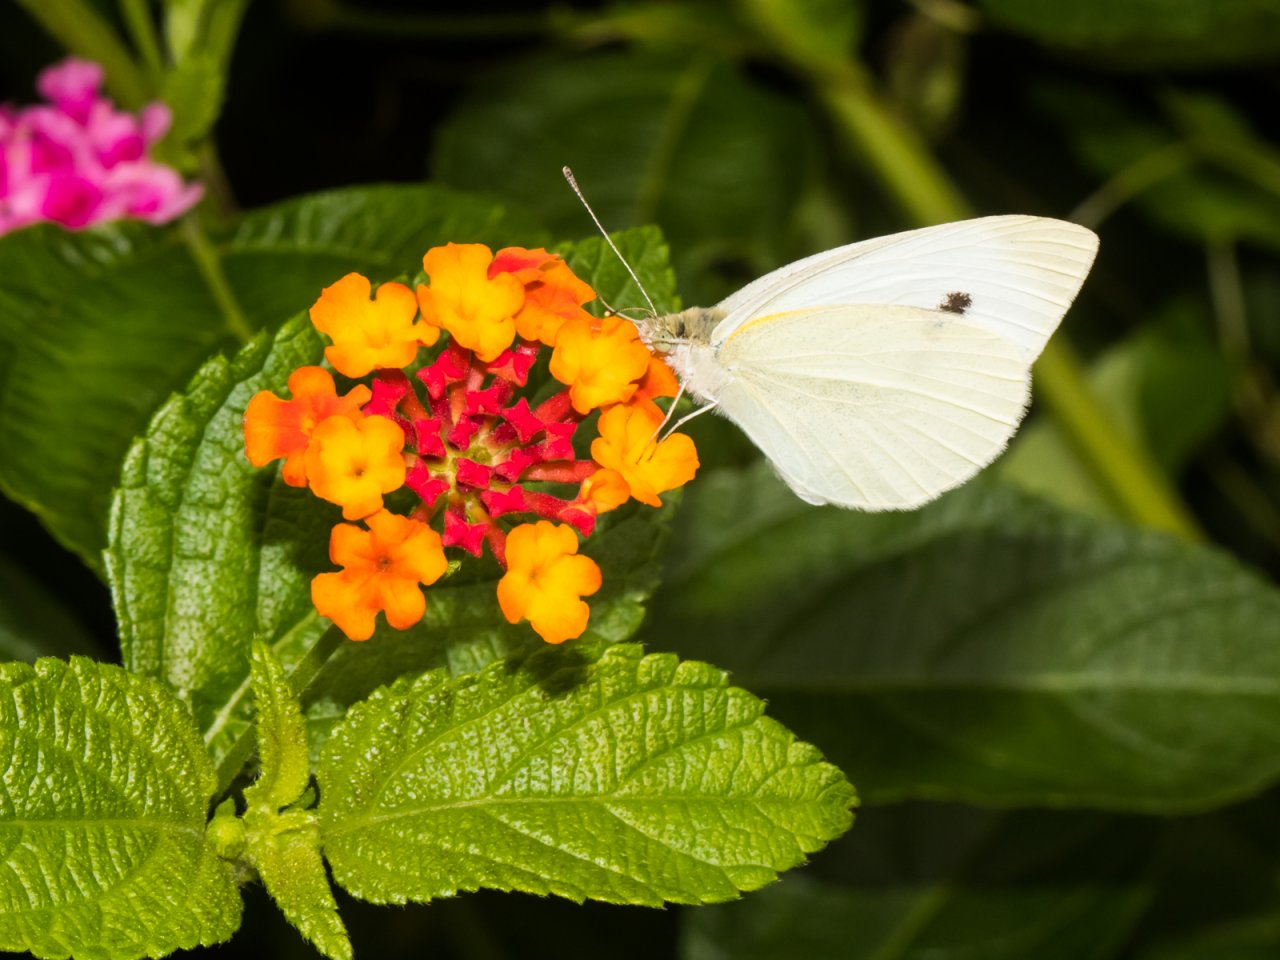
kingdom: Animalia
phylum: Arthropoda
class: Insecta
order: Lepidoptera
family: Pieridae
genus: Pieris
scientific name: Pieris rapae
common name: Cabbage White
